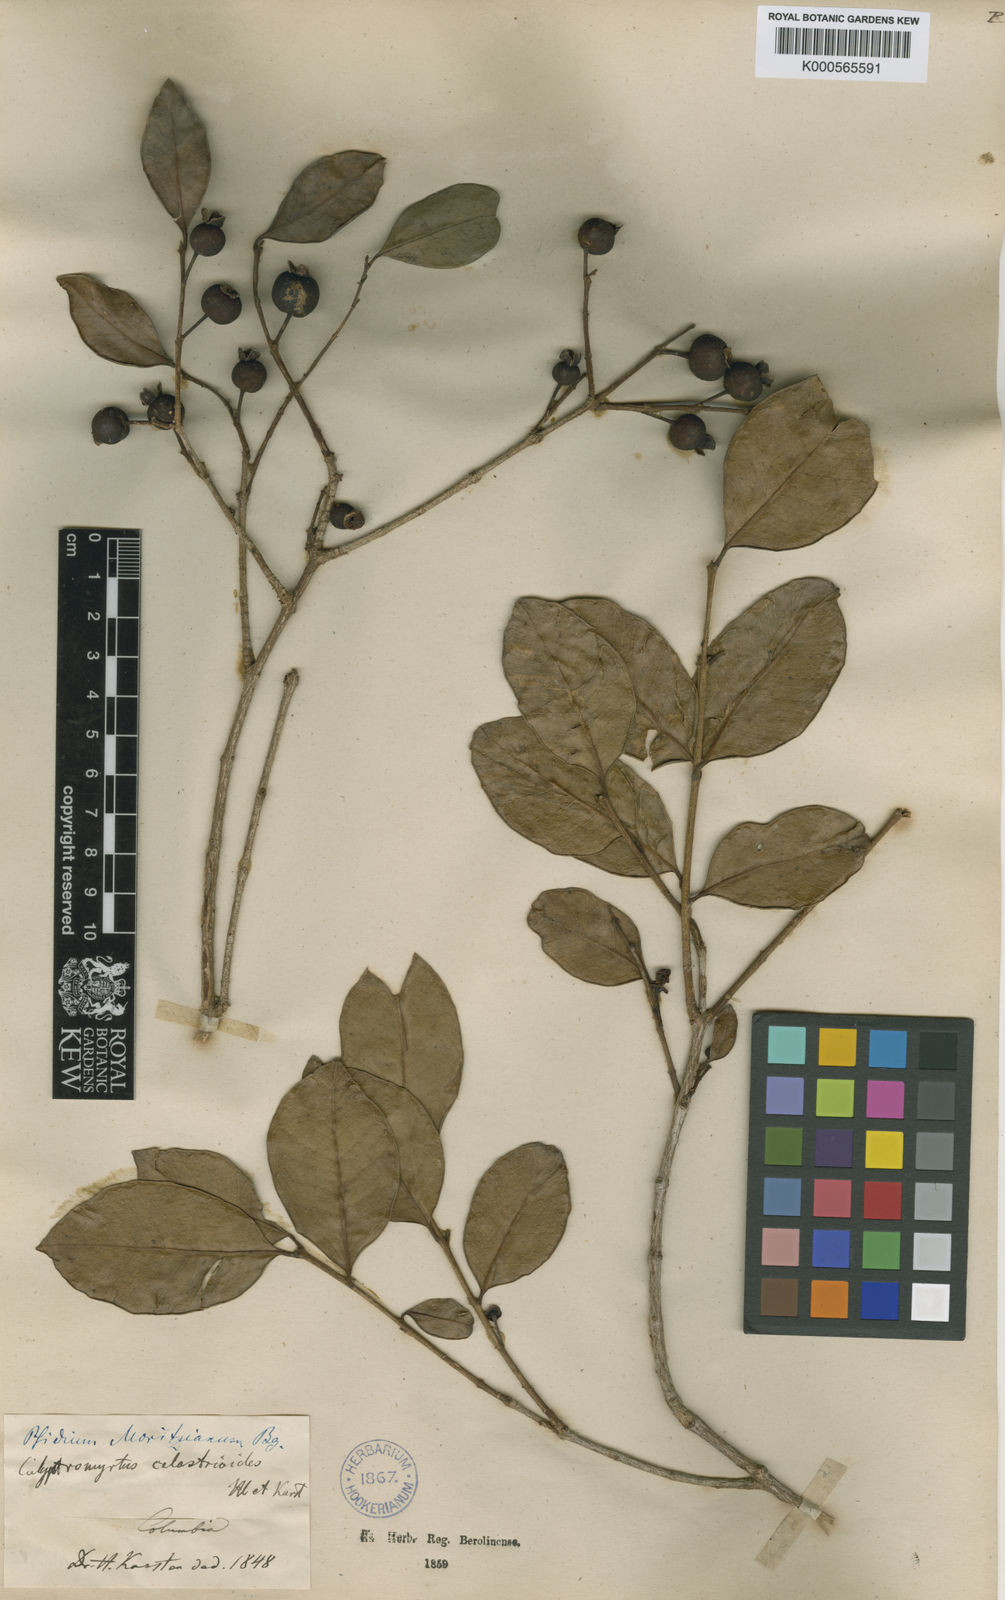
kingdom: Plantae
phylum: Tracheophyta
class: Magnoliopsida
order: Myrtales
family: Myrtaceae
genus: Psidium
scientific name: Psidium brownianum
